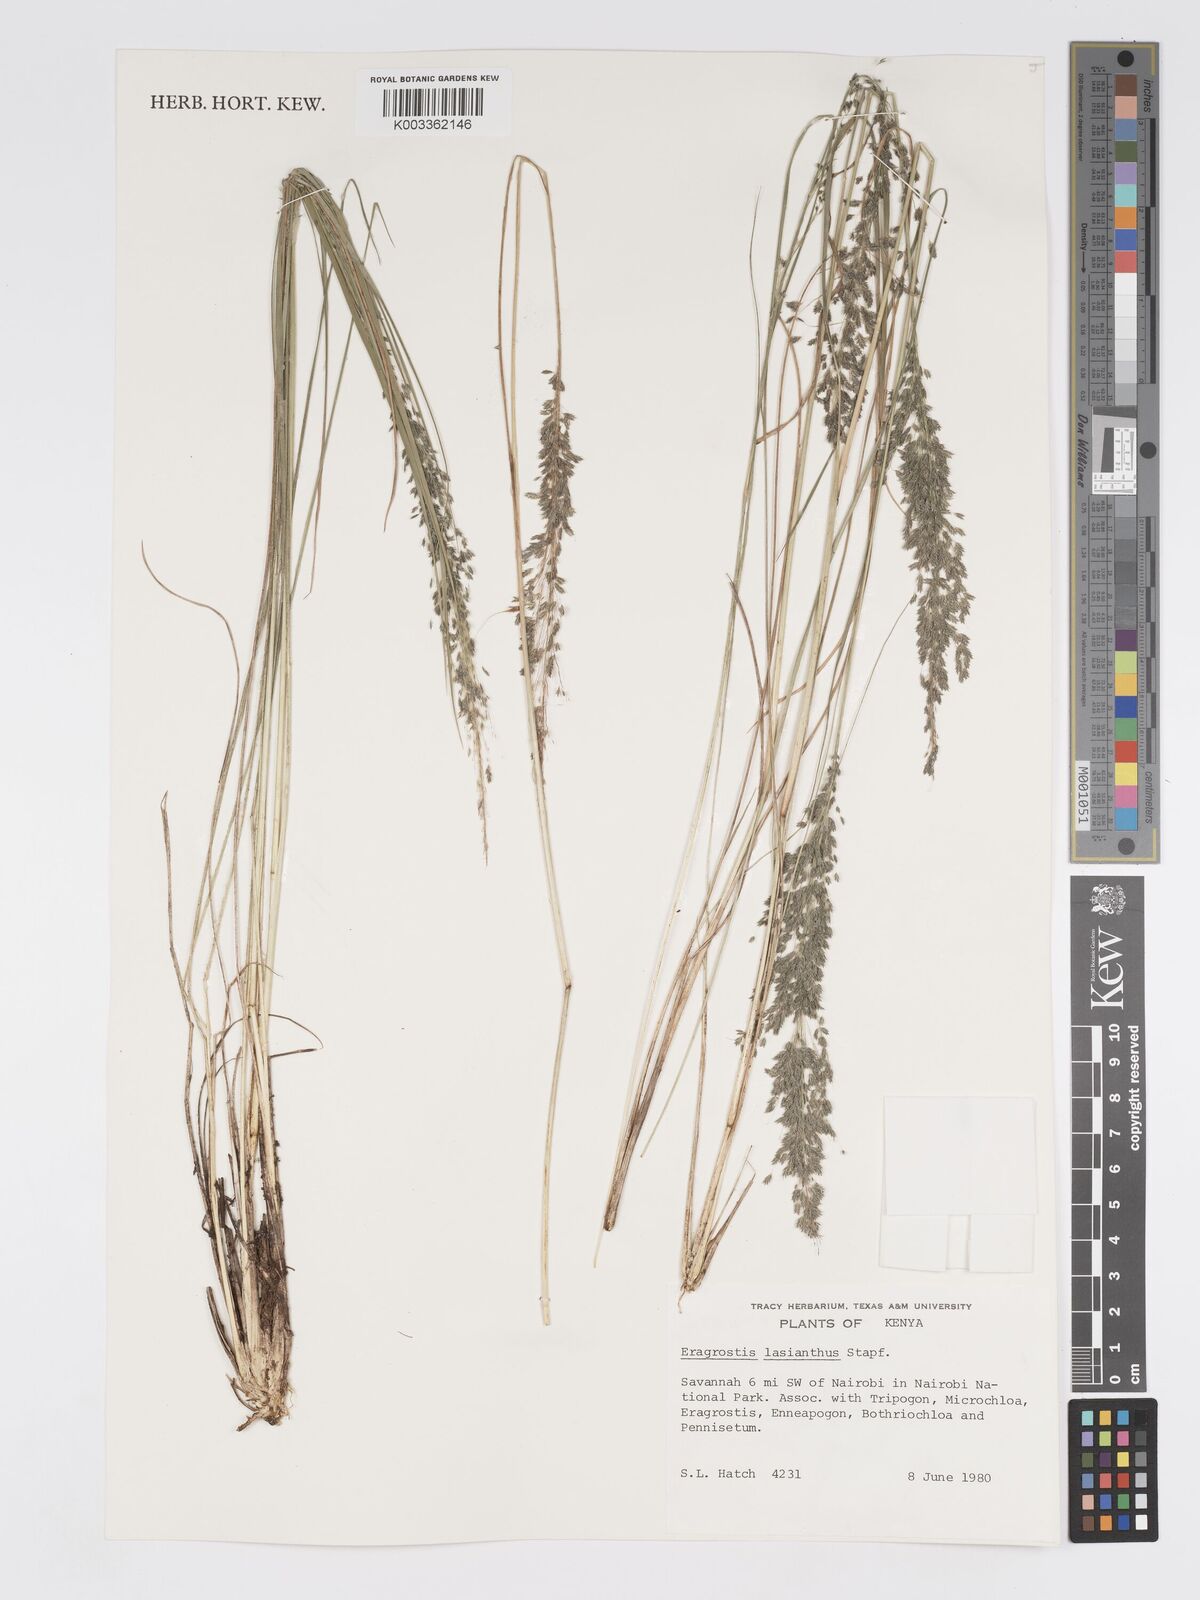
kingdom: Plantae
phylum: Tracheophyta
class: Liliopsida
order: Poales
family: Poaceae
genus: Eragrostis
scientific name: Eragrostis olivacea
